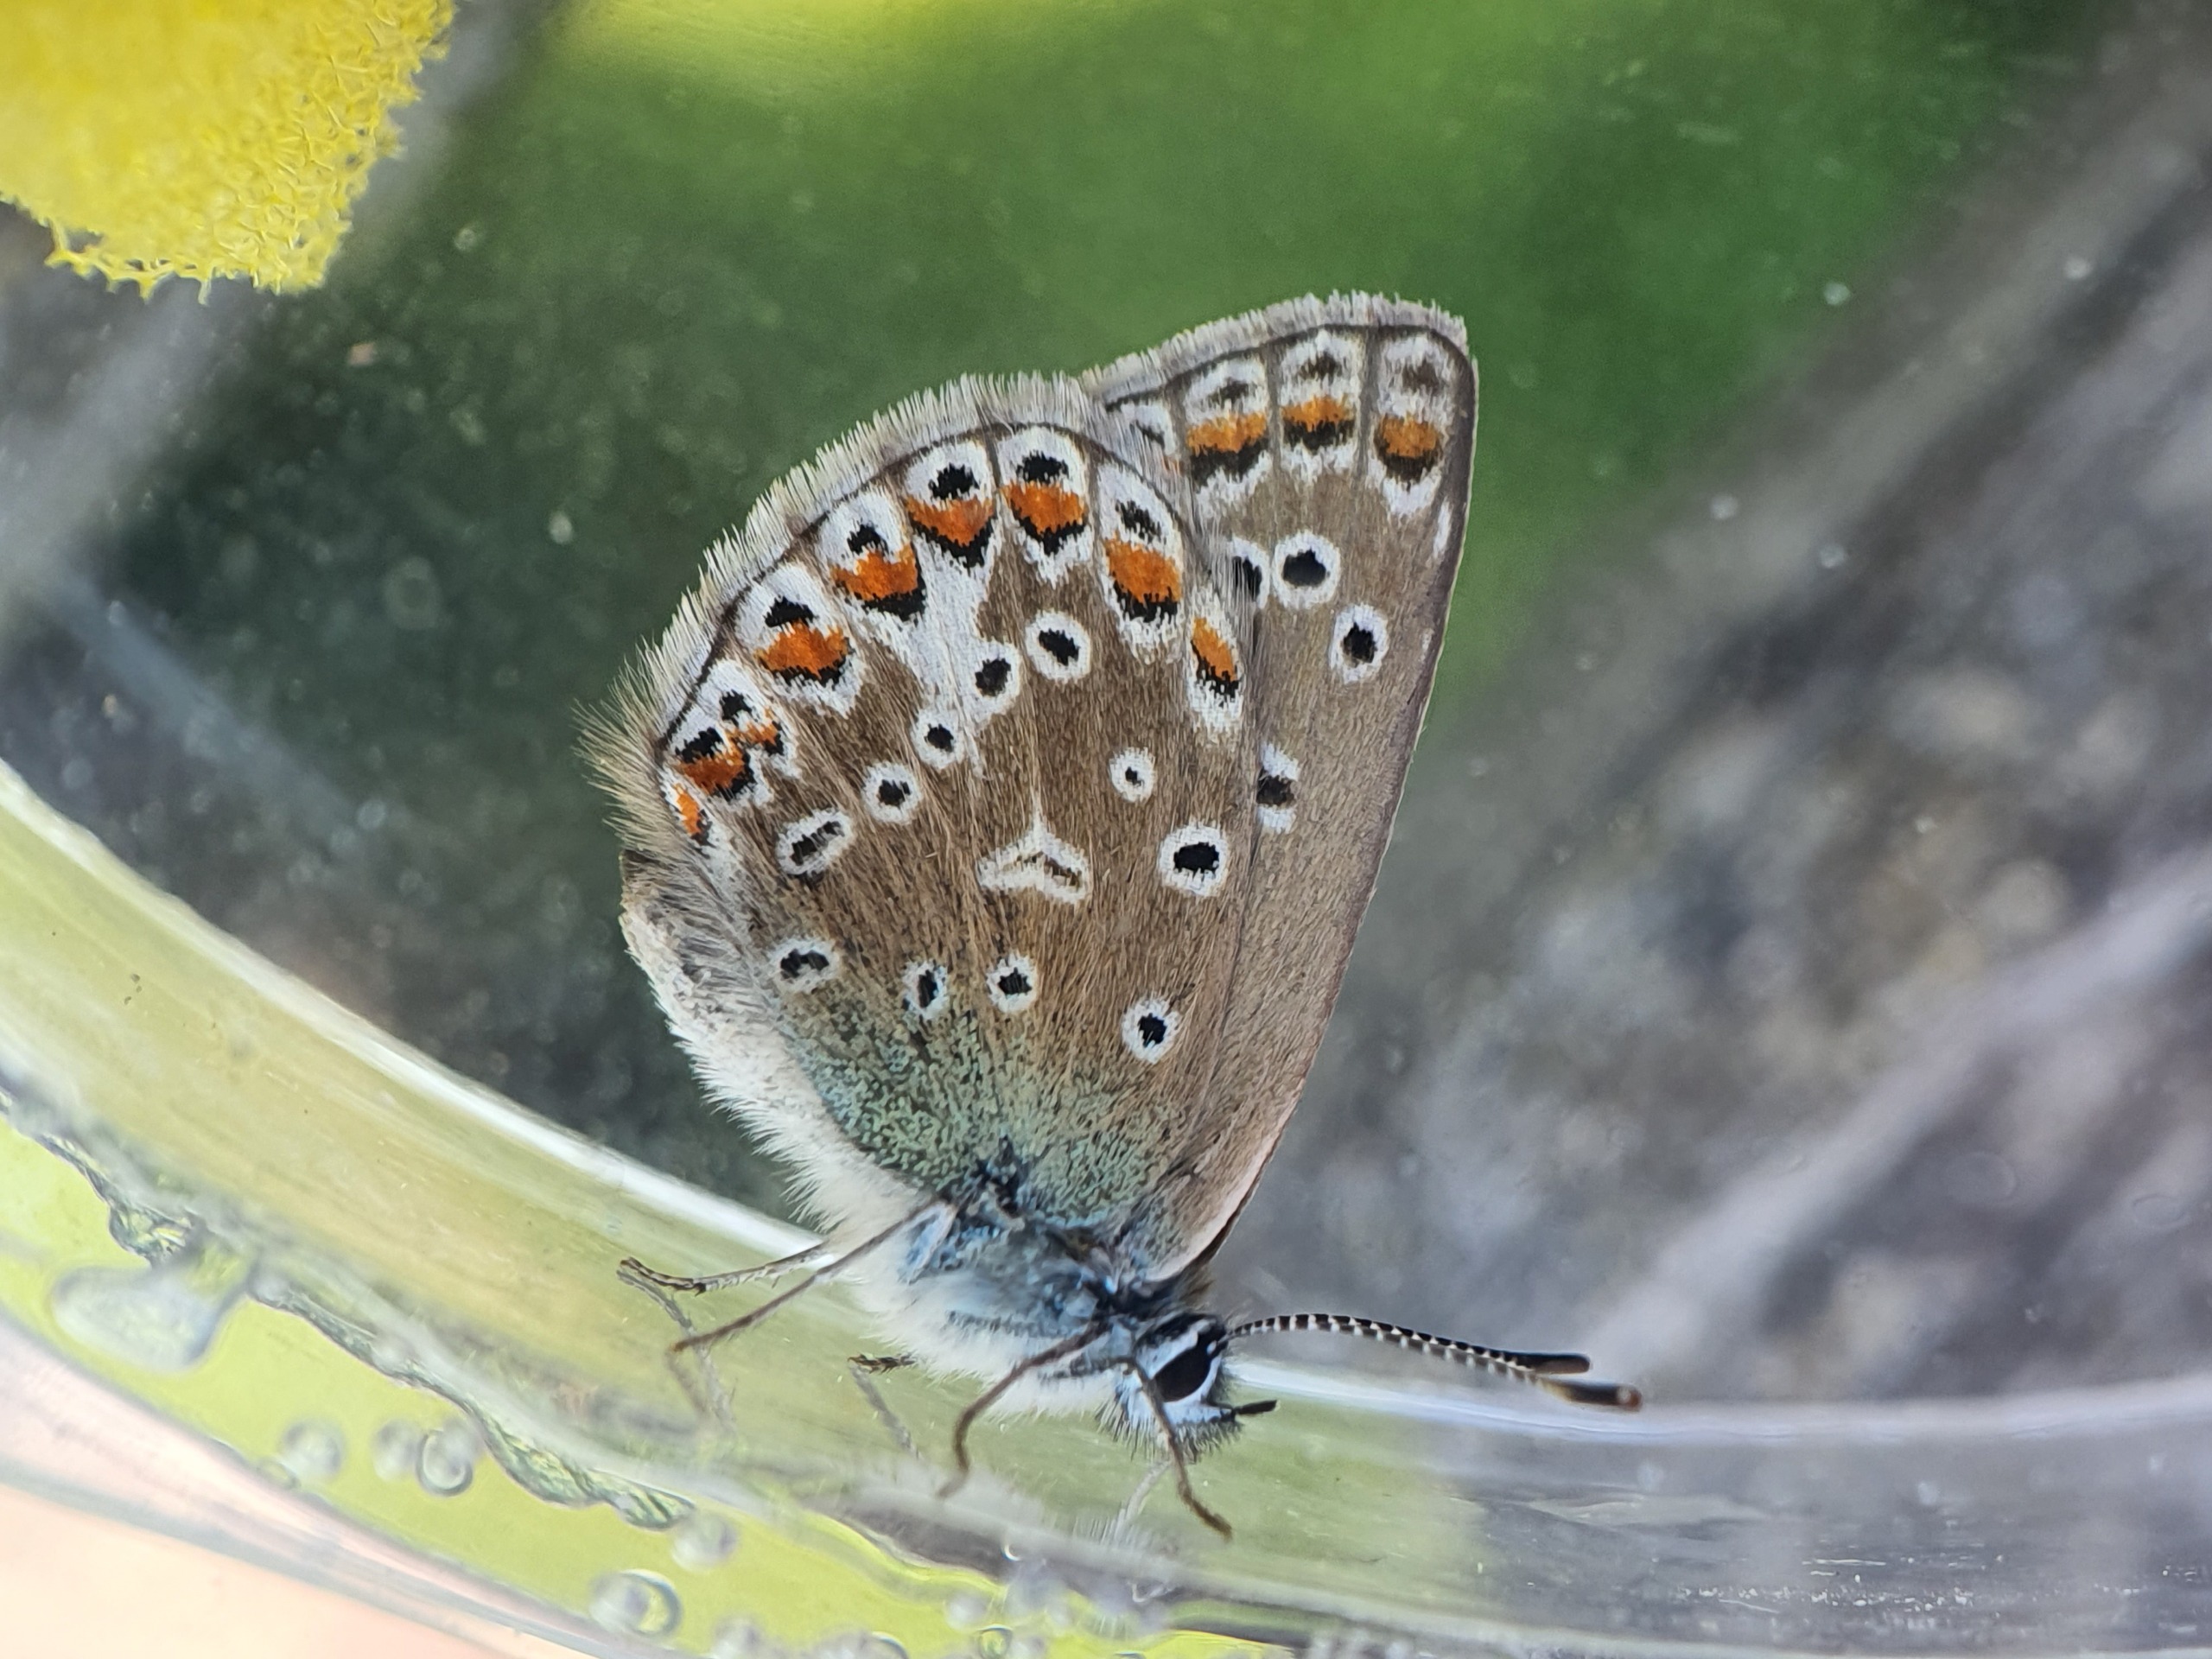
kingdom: Animalia
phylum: Arthropoda
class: Insecta
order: Lepidoptera
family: Lycaenidae
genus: Polyommatus
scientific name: Polyommatus icarus
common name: Almindelig blåfugl
